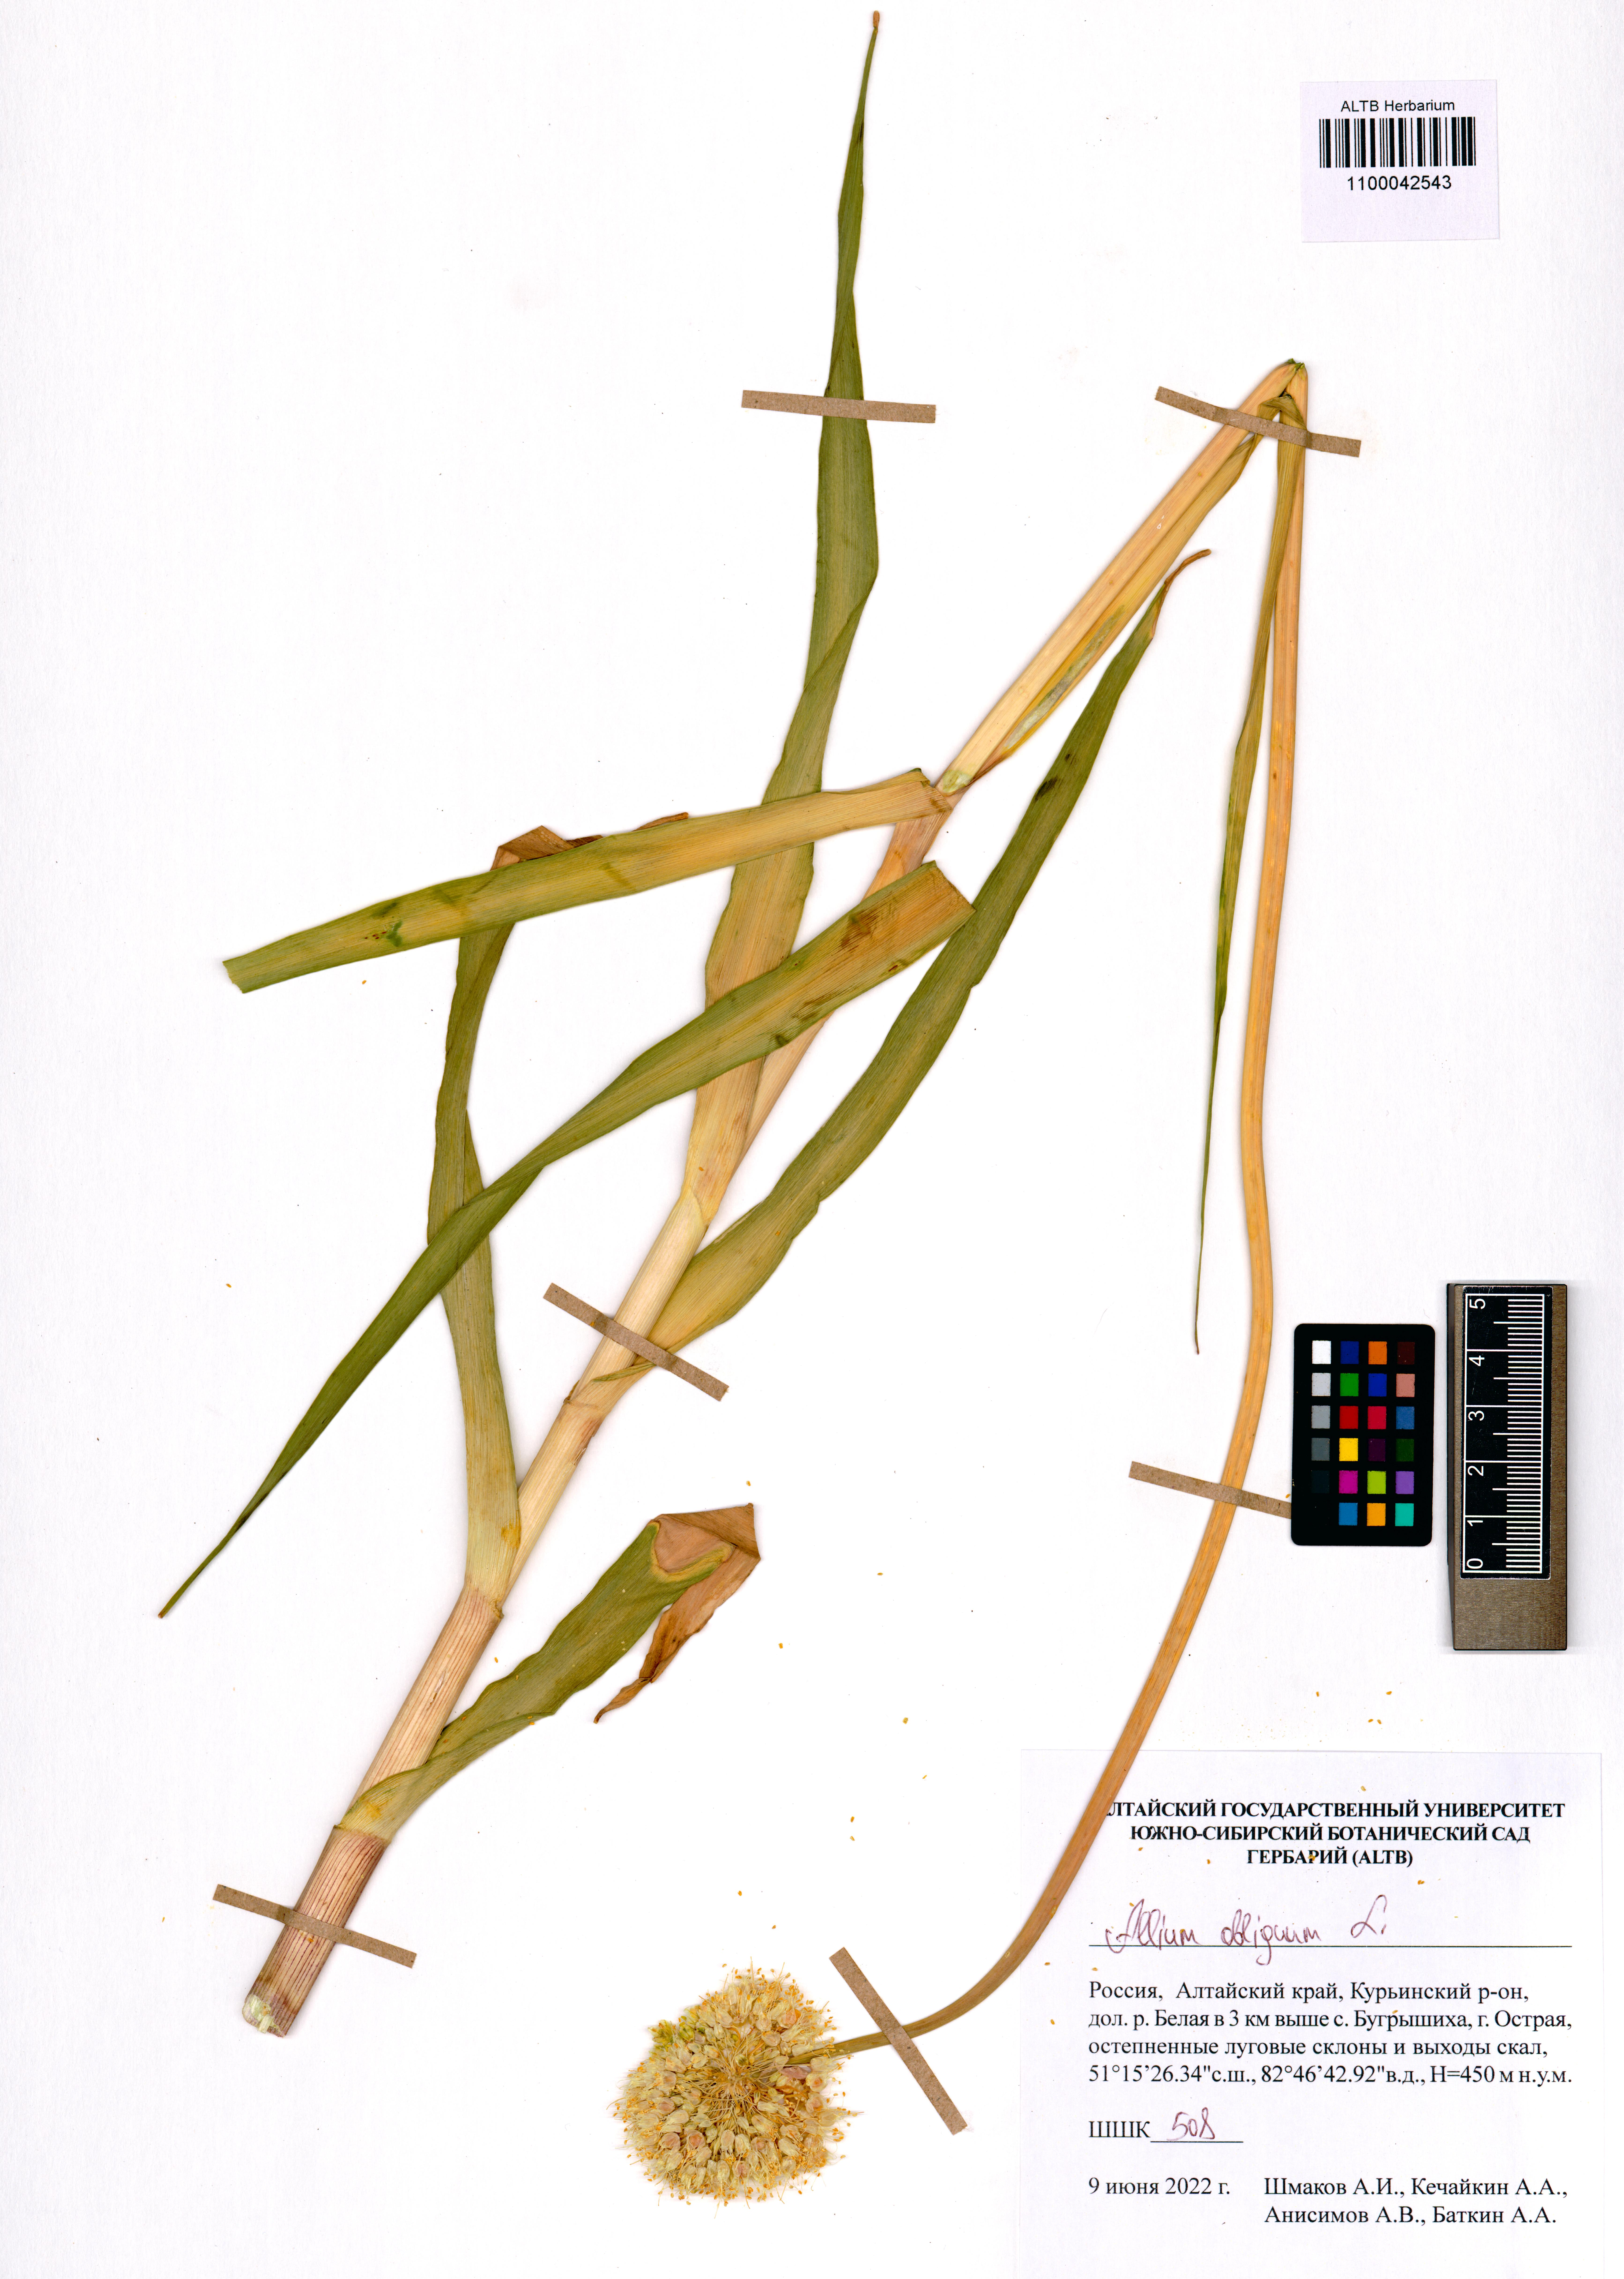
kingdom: Plantae
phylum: Tracheophyta
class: Liliopsida
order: Asparagales
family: Amaryllidaceae
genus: Allium
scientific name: Allium obliquum
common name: Oblique onion
